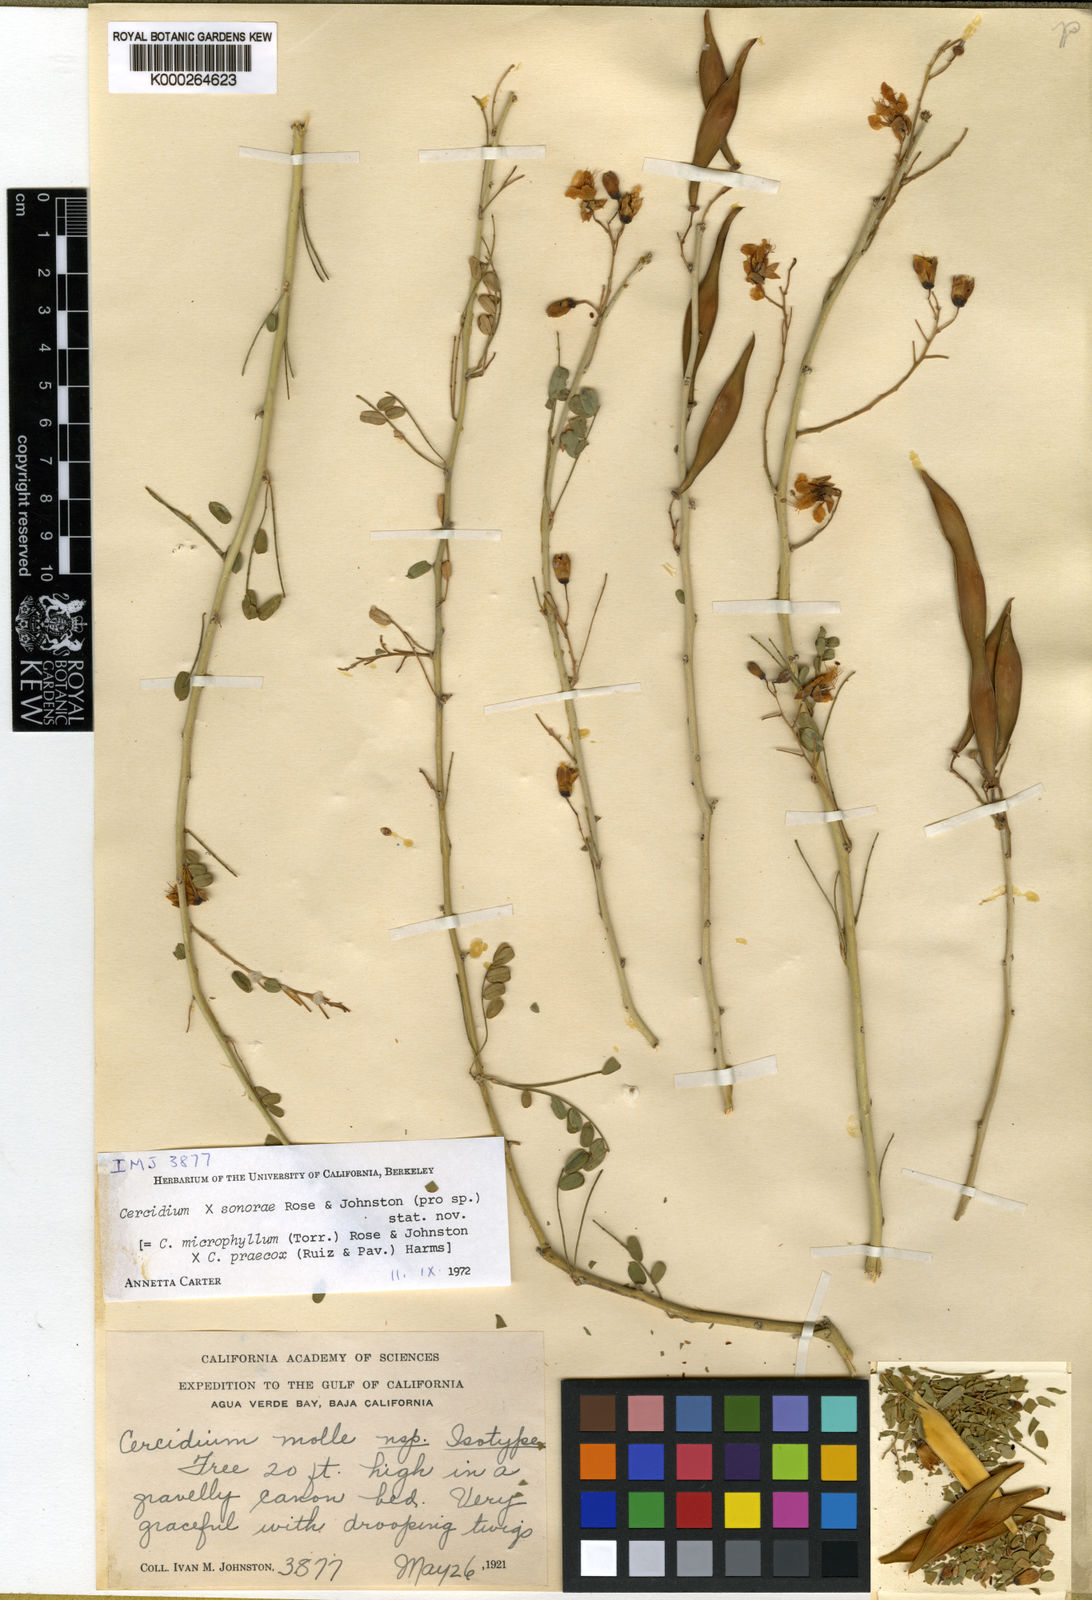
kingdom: Plantae
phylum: Tracheophyta
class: Magnoliopsida
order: Fabales
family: Fabaceae
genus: Parkinsonia
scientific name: Parkinsonia sonorae
